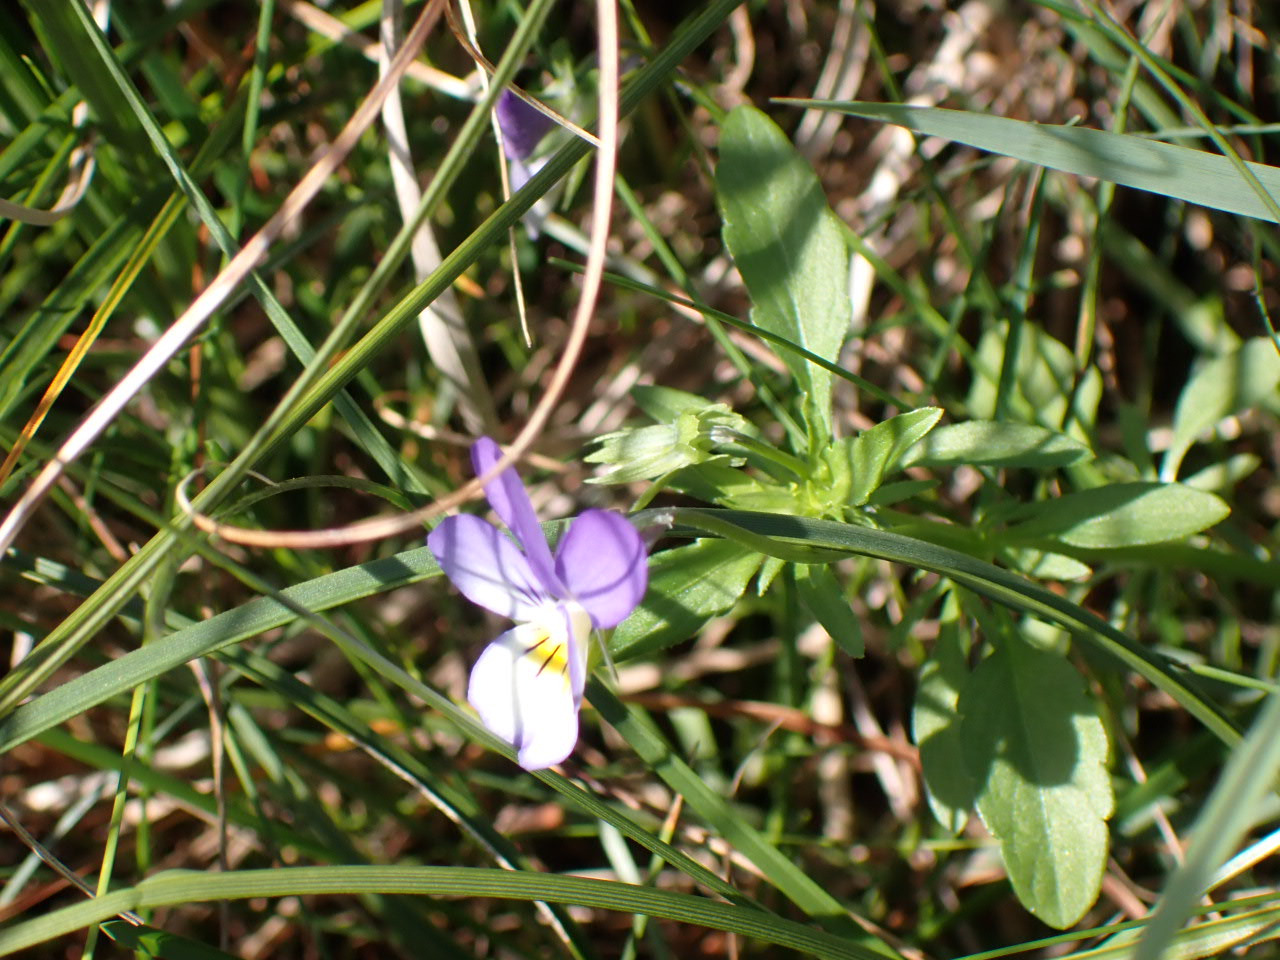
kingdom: Plantae
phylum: Tracheophyta
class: Magnoliopsida
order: Malpighiales
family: Violaceae
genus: Viola
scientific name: Viola tricolor
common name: Stedmoderblomst
